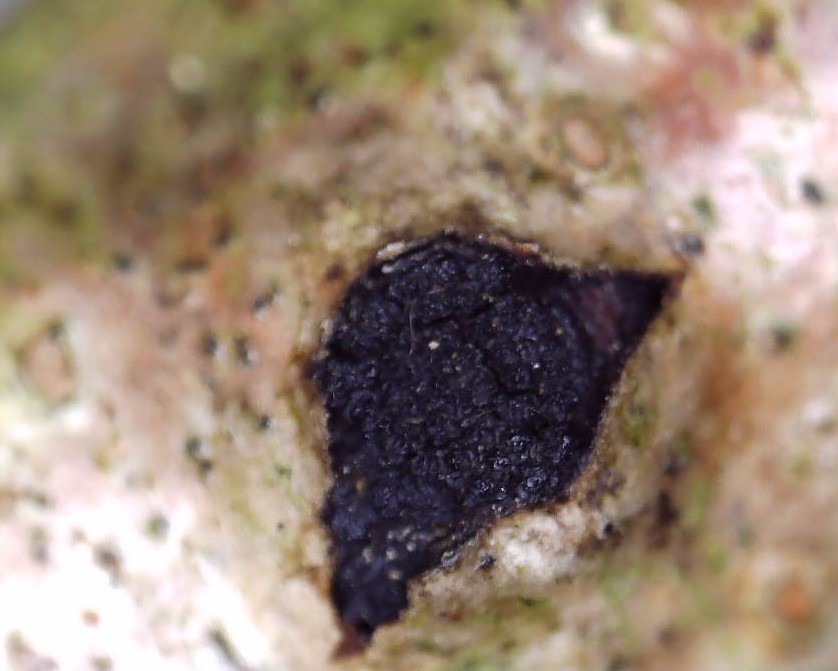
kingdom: Fungi
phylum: Ascomycota
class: Sordariomycetes
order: Xylariales
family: Diatrypaceae
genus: Eutypella
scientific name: Eutypella sorbi
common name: rønne-kulskorpe
